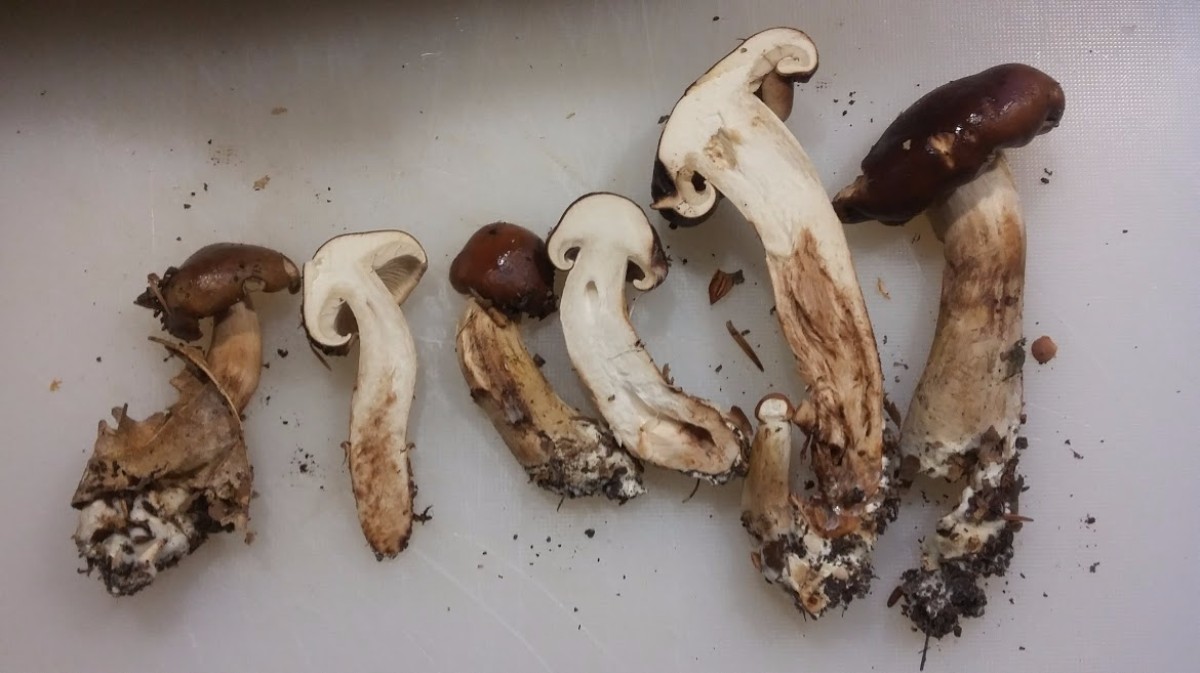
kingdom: Fungi
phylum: Basidiomycota
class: Agaricomycetes
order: Agaricales
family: Tricholomataceae
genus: Tricholoma
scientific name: Tricholoma ustale
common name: sveden ridderhat
